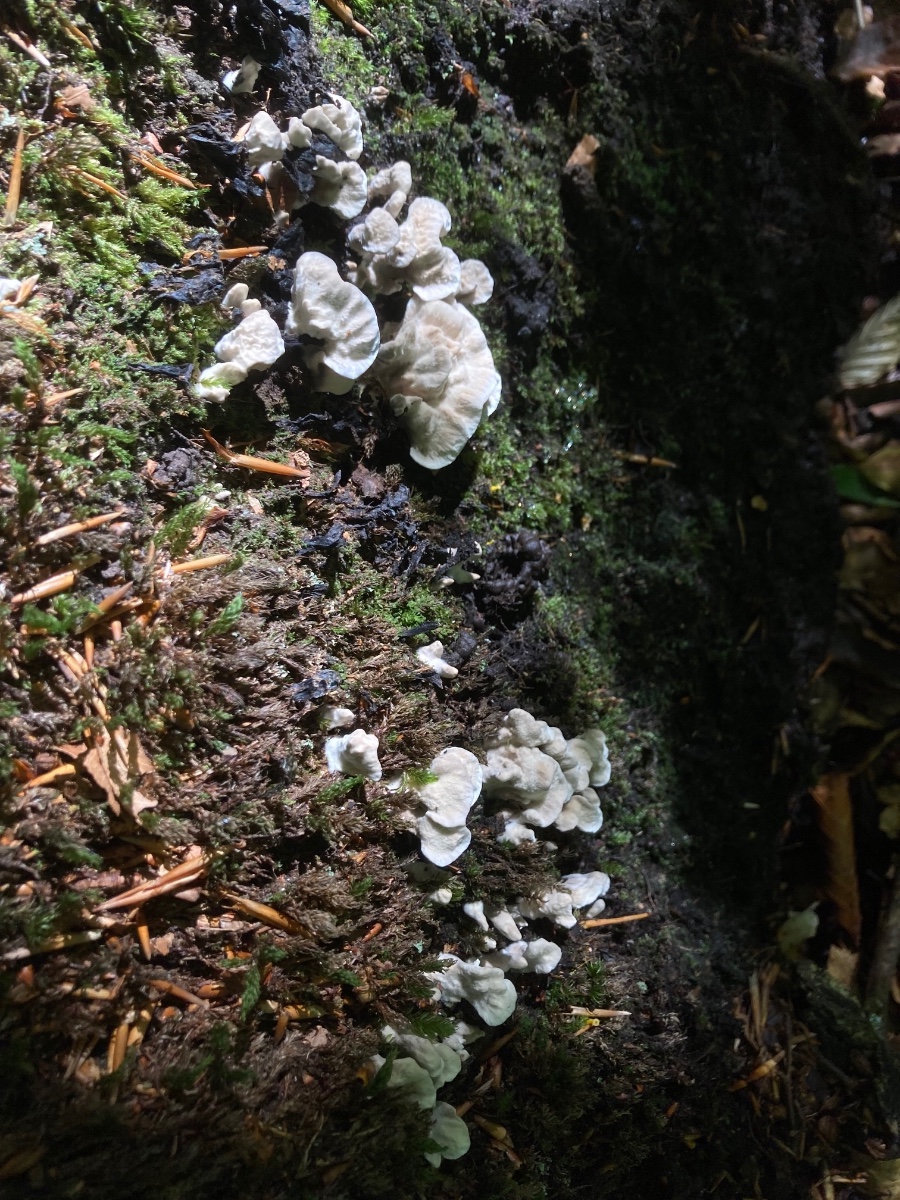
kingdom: Fungi
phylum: Basidiomycota
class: Agaricomycetes
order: Thelephorales
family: Thelephoraceae
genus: Phellodon
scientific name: Phellodon confluens
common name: pjaltet duftpigsvamp
